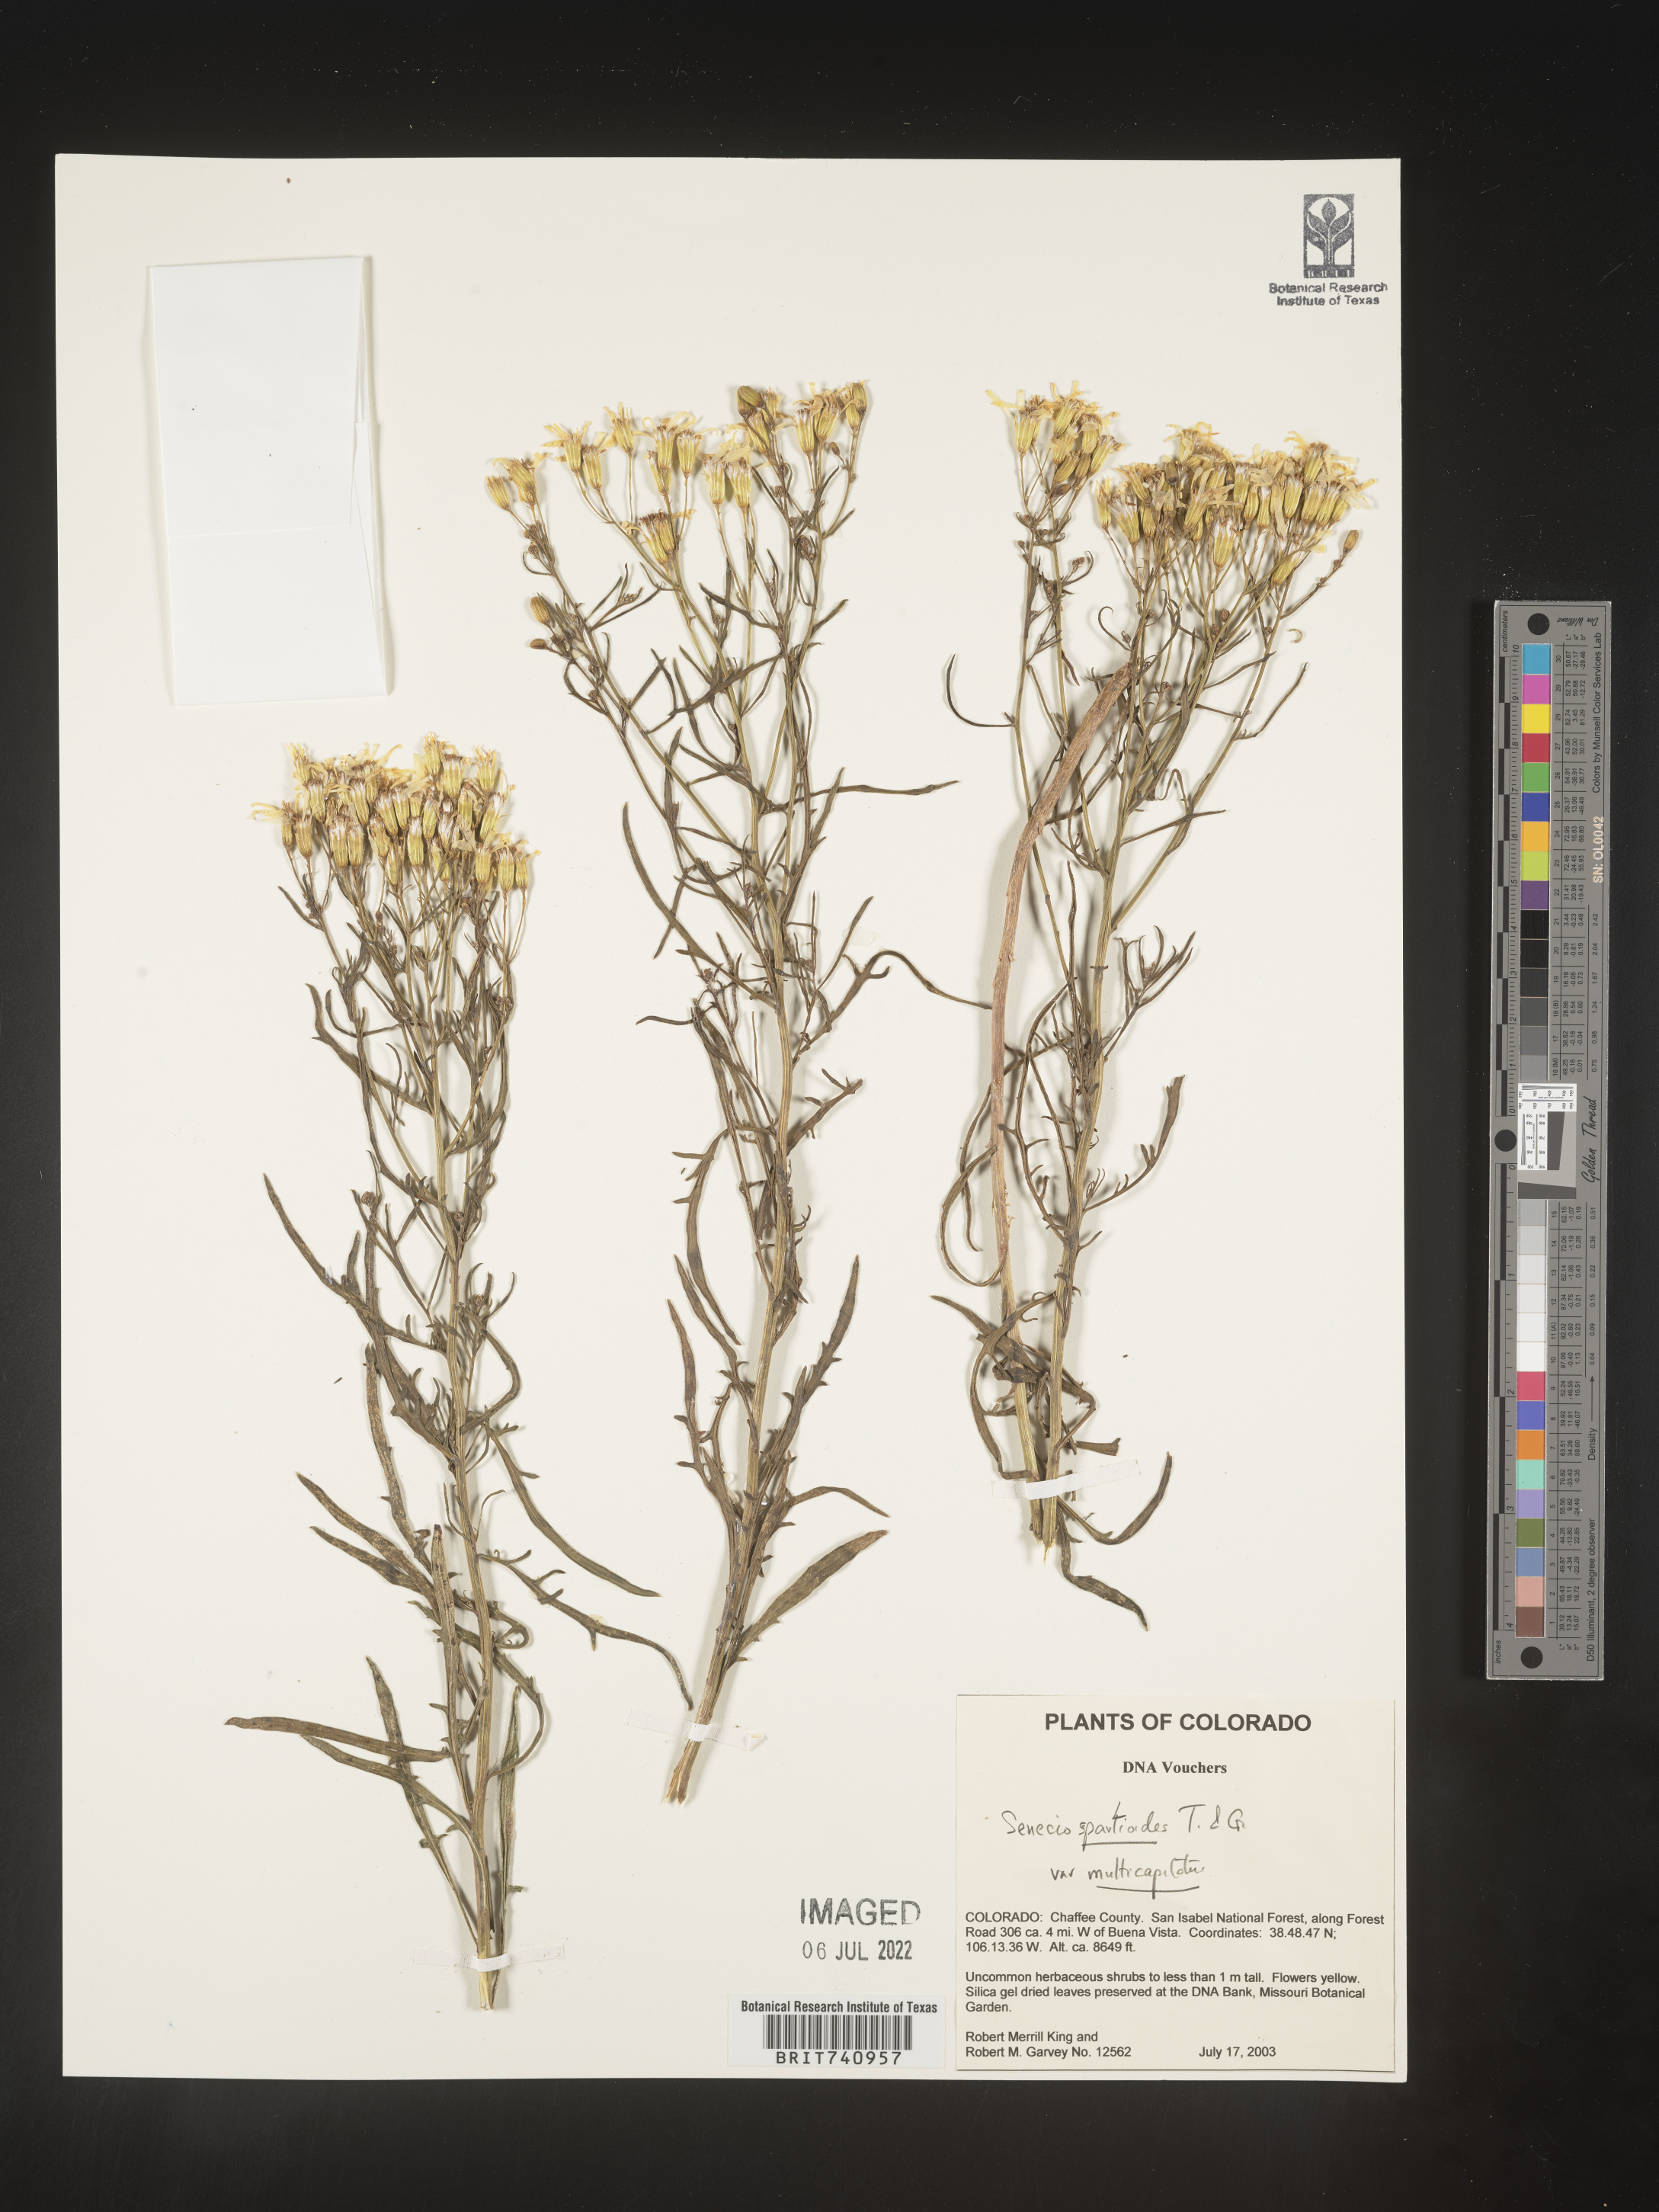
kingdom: Plantae
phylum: Tracheophyta
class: Magnoliopsida
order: Asterales
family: Asteraceae
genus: Senecio
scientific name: Senecio spartioides
